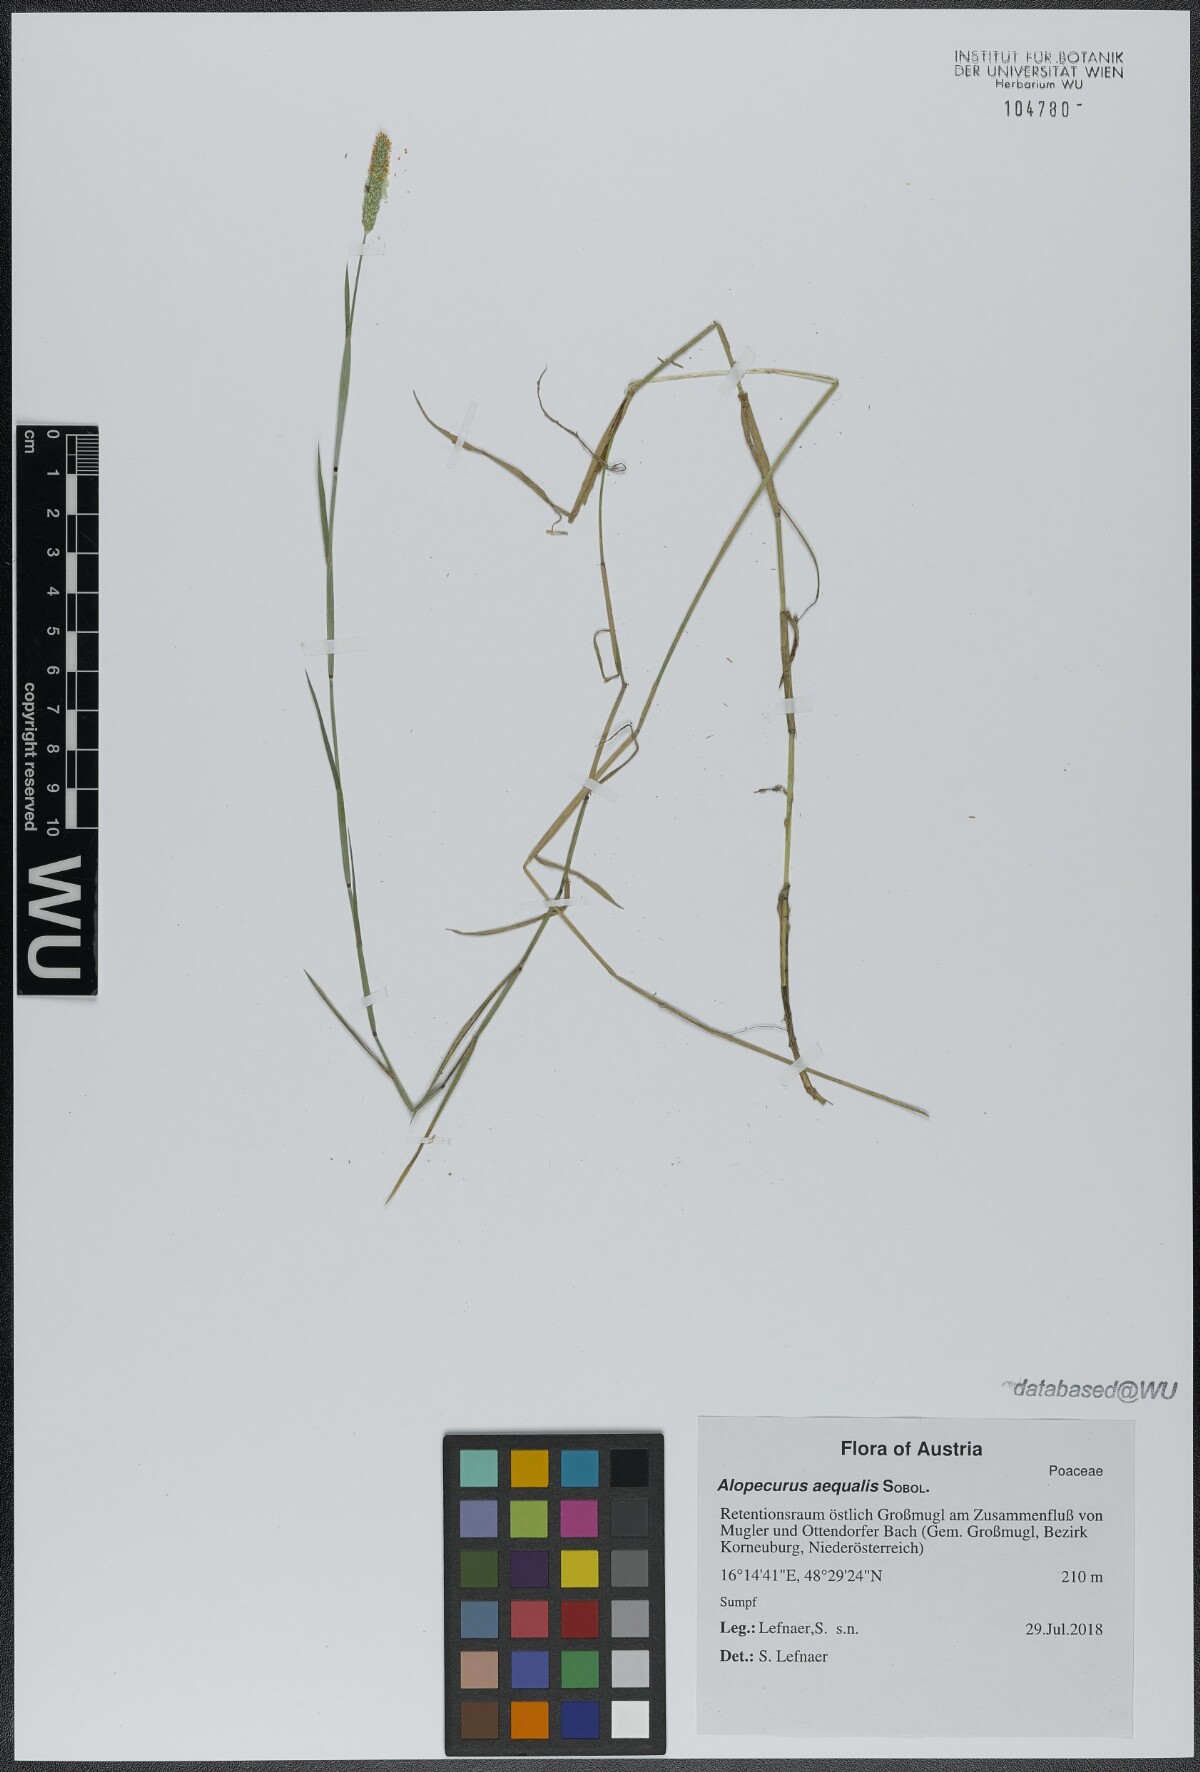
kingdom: Plantae
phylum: Tracheophyta
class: Liliopsida
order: Poales
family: Poaceae
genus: Alopecurus
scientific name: Alopecurus aequalis
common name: Orange foxtail
